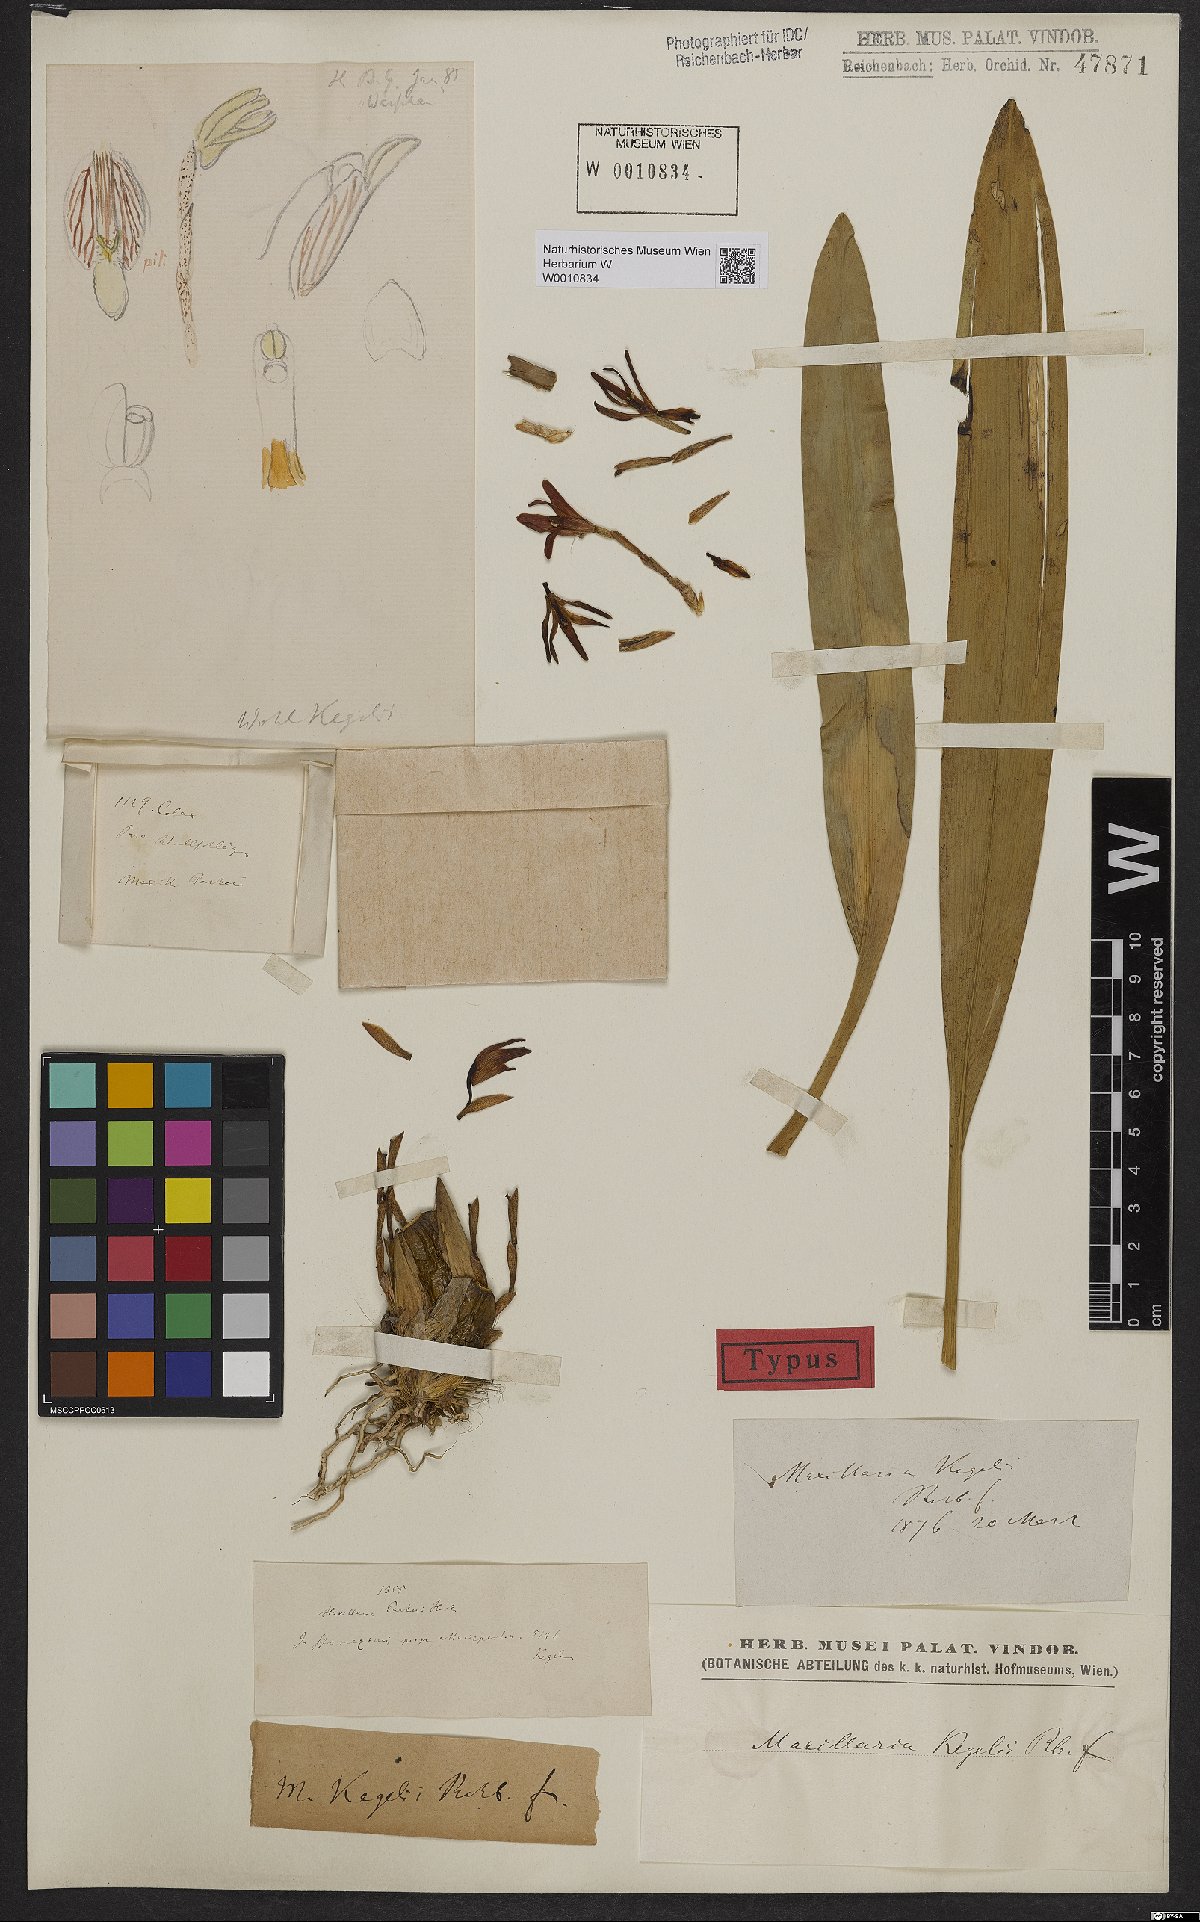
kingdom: Plantae
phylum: Tracheophyta
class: Liliopsida
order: Asparagales
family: Orchidaceae
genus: Maxillaria
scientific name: Maxillaria kegelii
